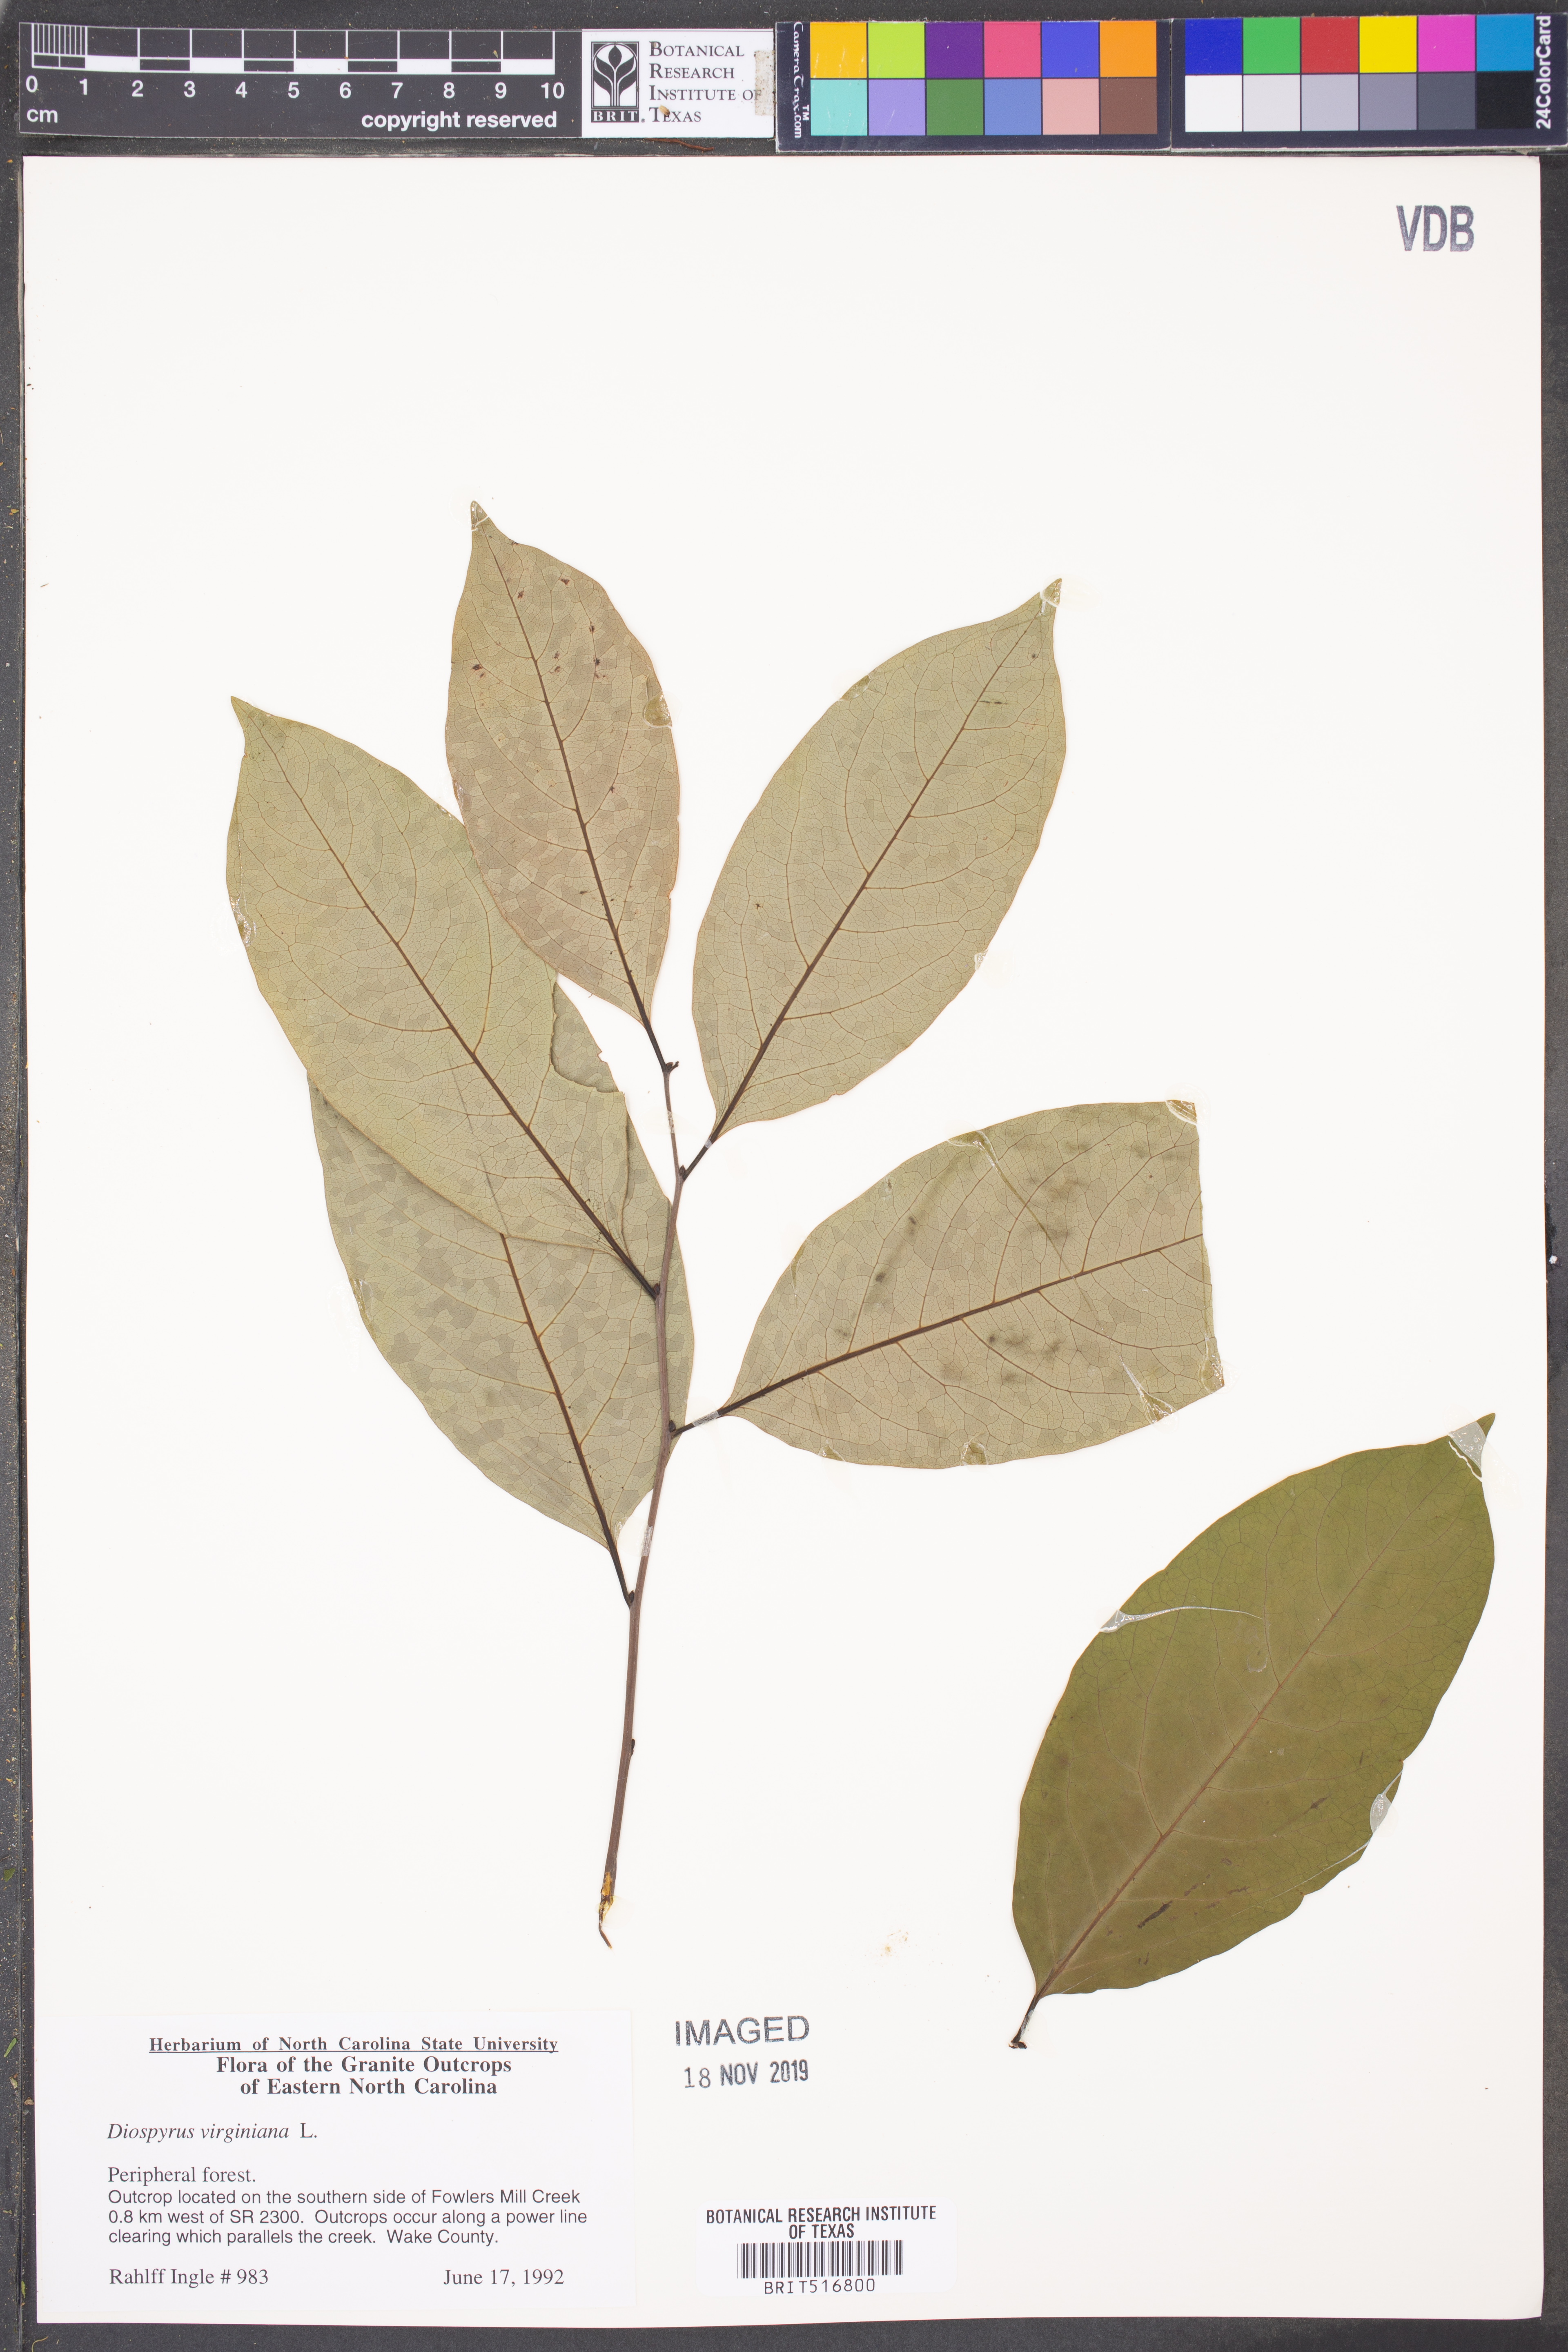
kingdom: Plantae
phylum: Tracheophyta
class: Magnoliopsida
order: Ericales
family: Ebenaceae
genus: Diospyros
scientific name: Diospyros virginiana
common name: Persimmon
